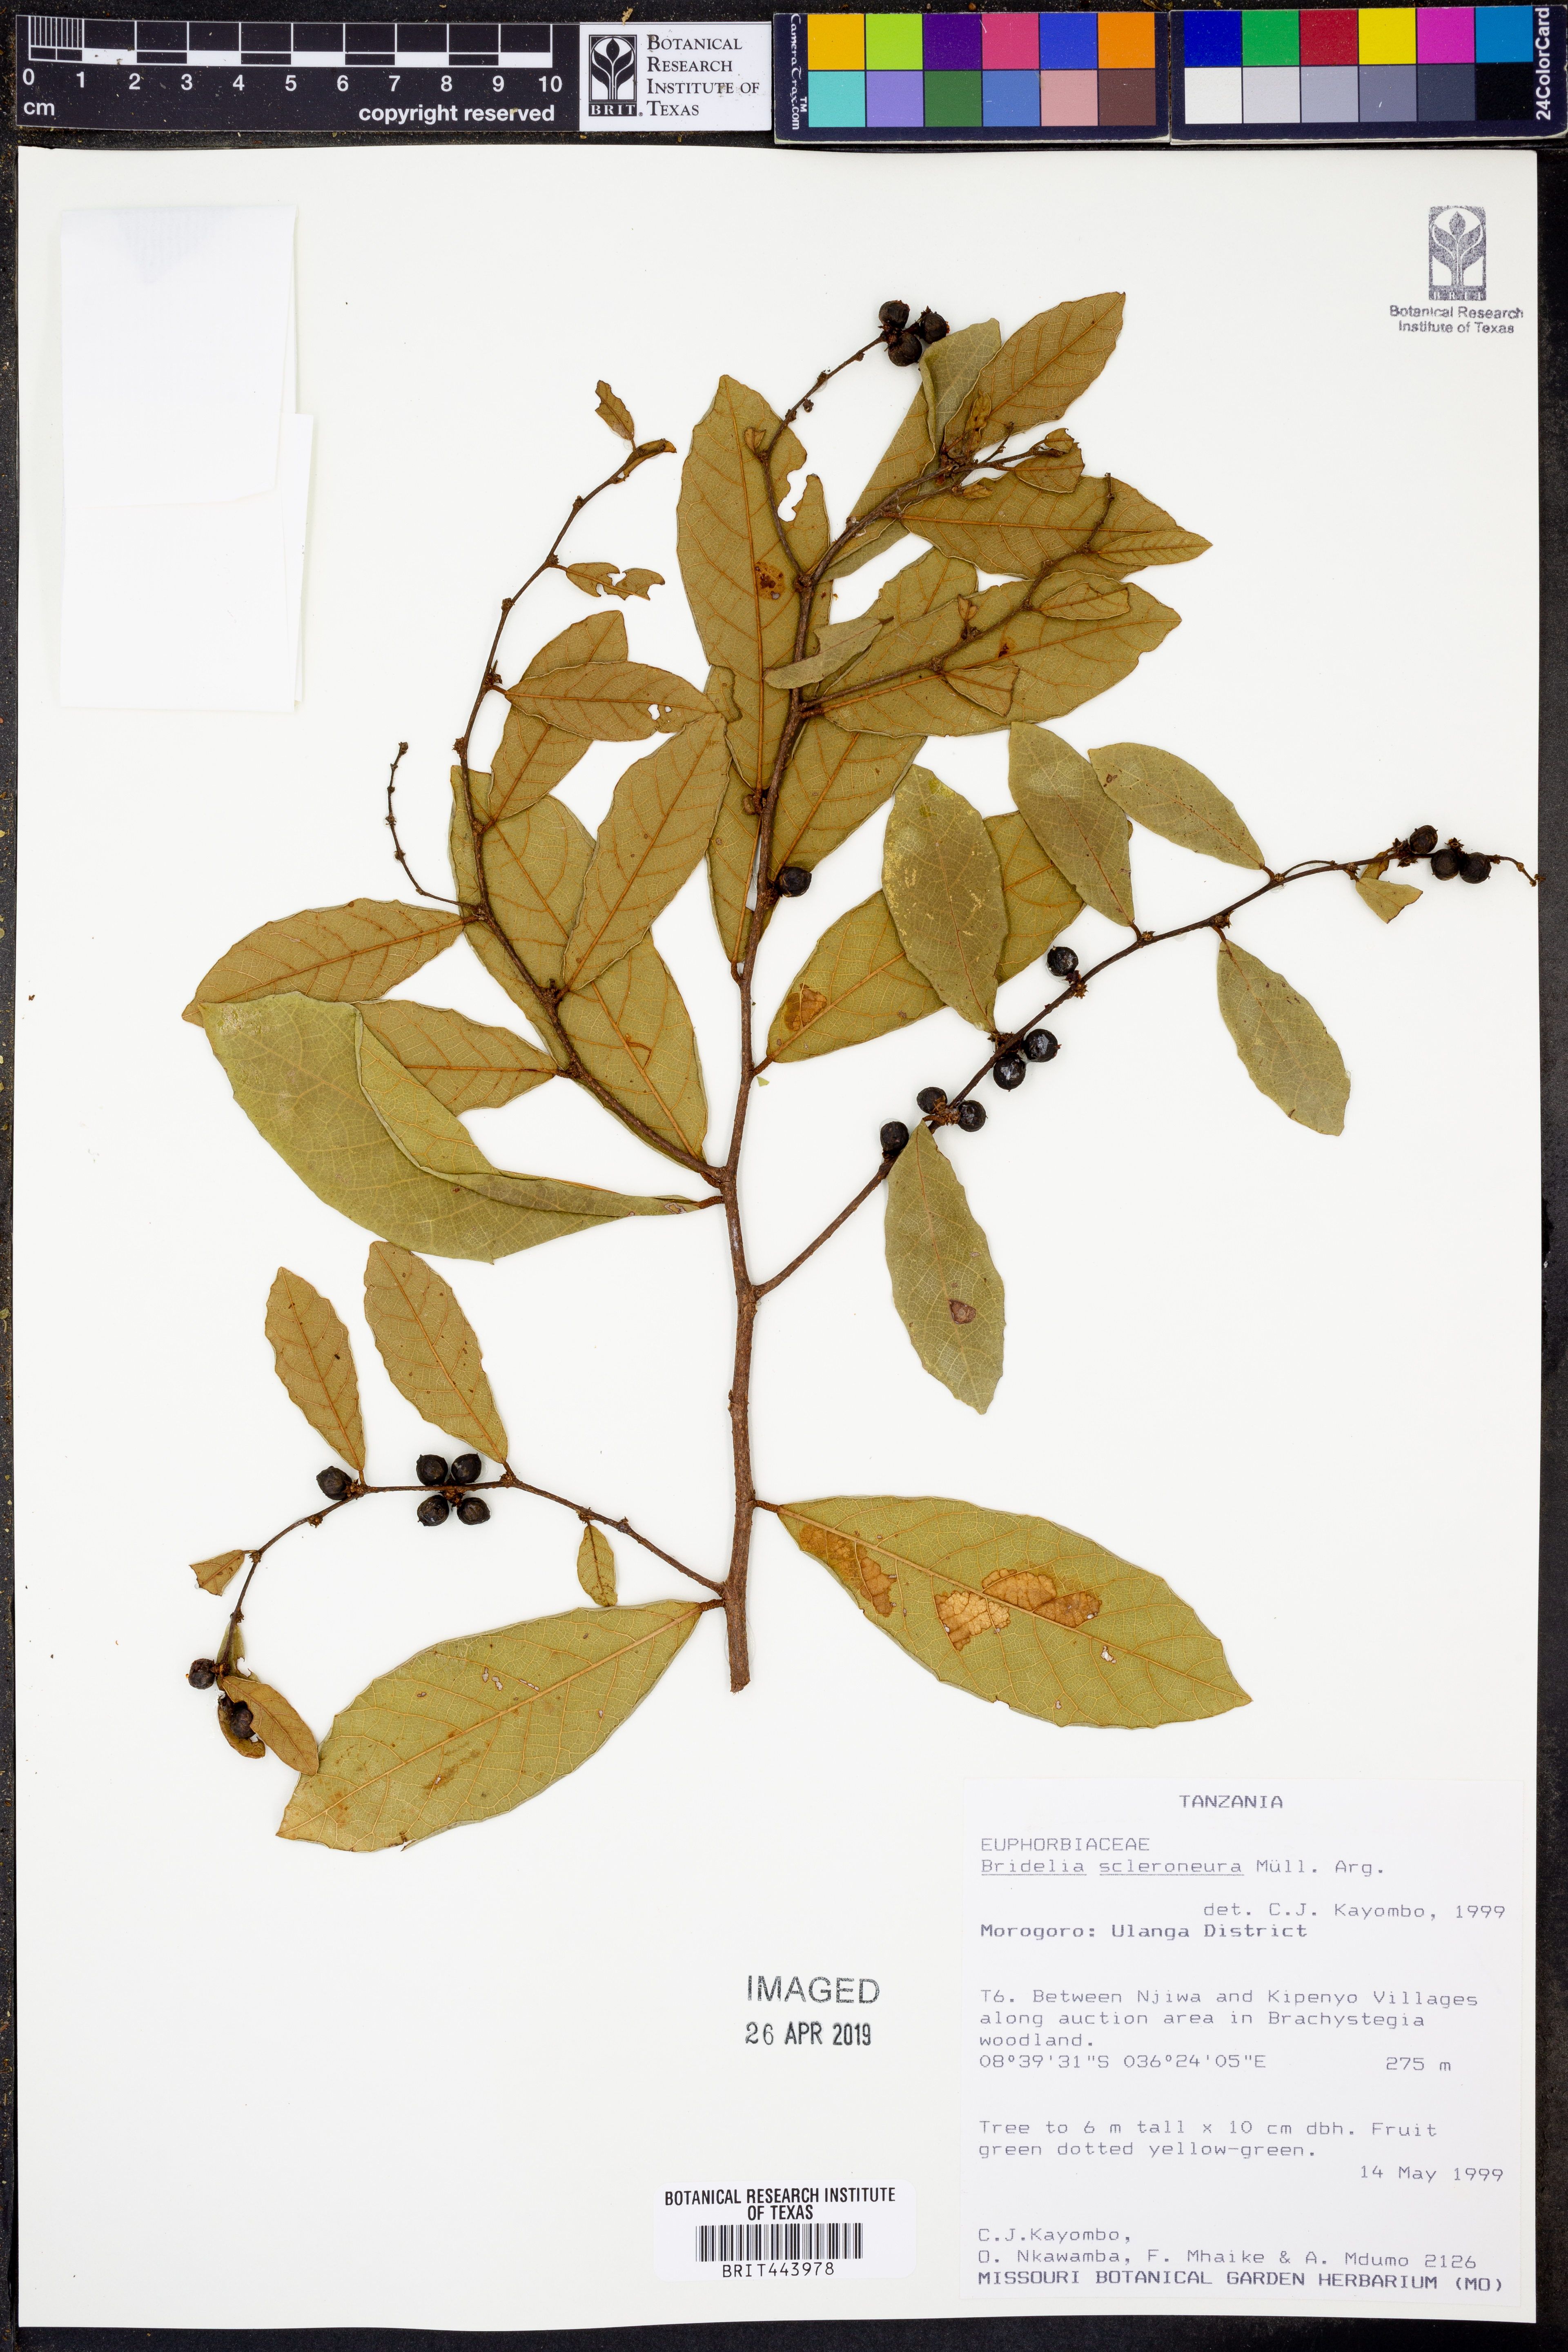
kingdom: Plantae
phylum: Tracheophyta
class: Magnoliopsida
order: Malpighiales
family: Phyllanthaceae
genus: Bridelia
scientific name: Bridelia scleroneura
